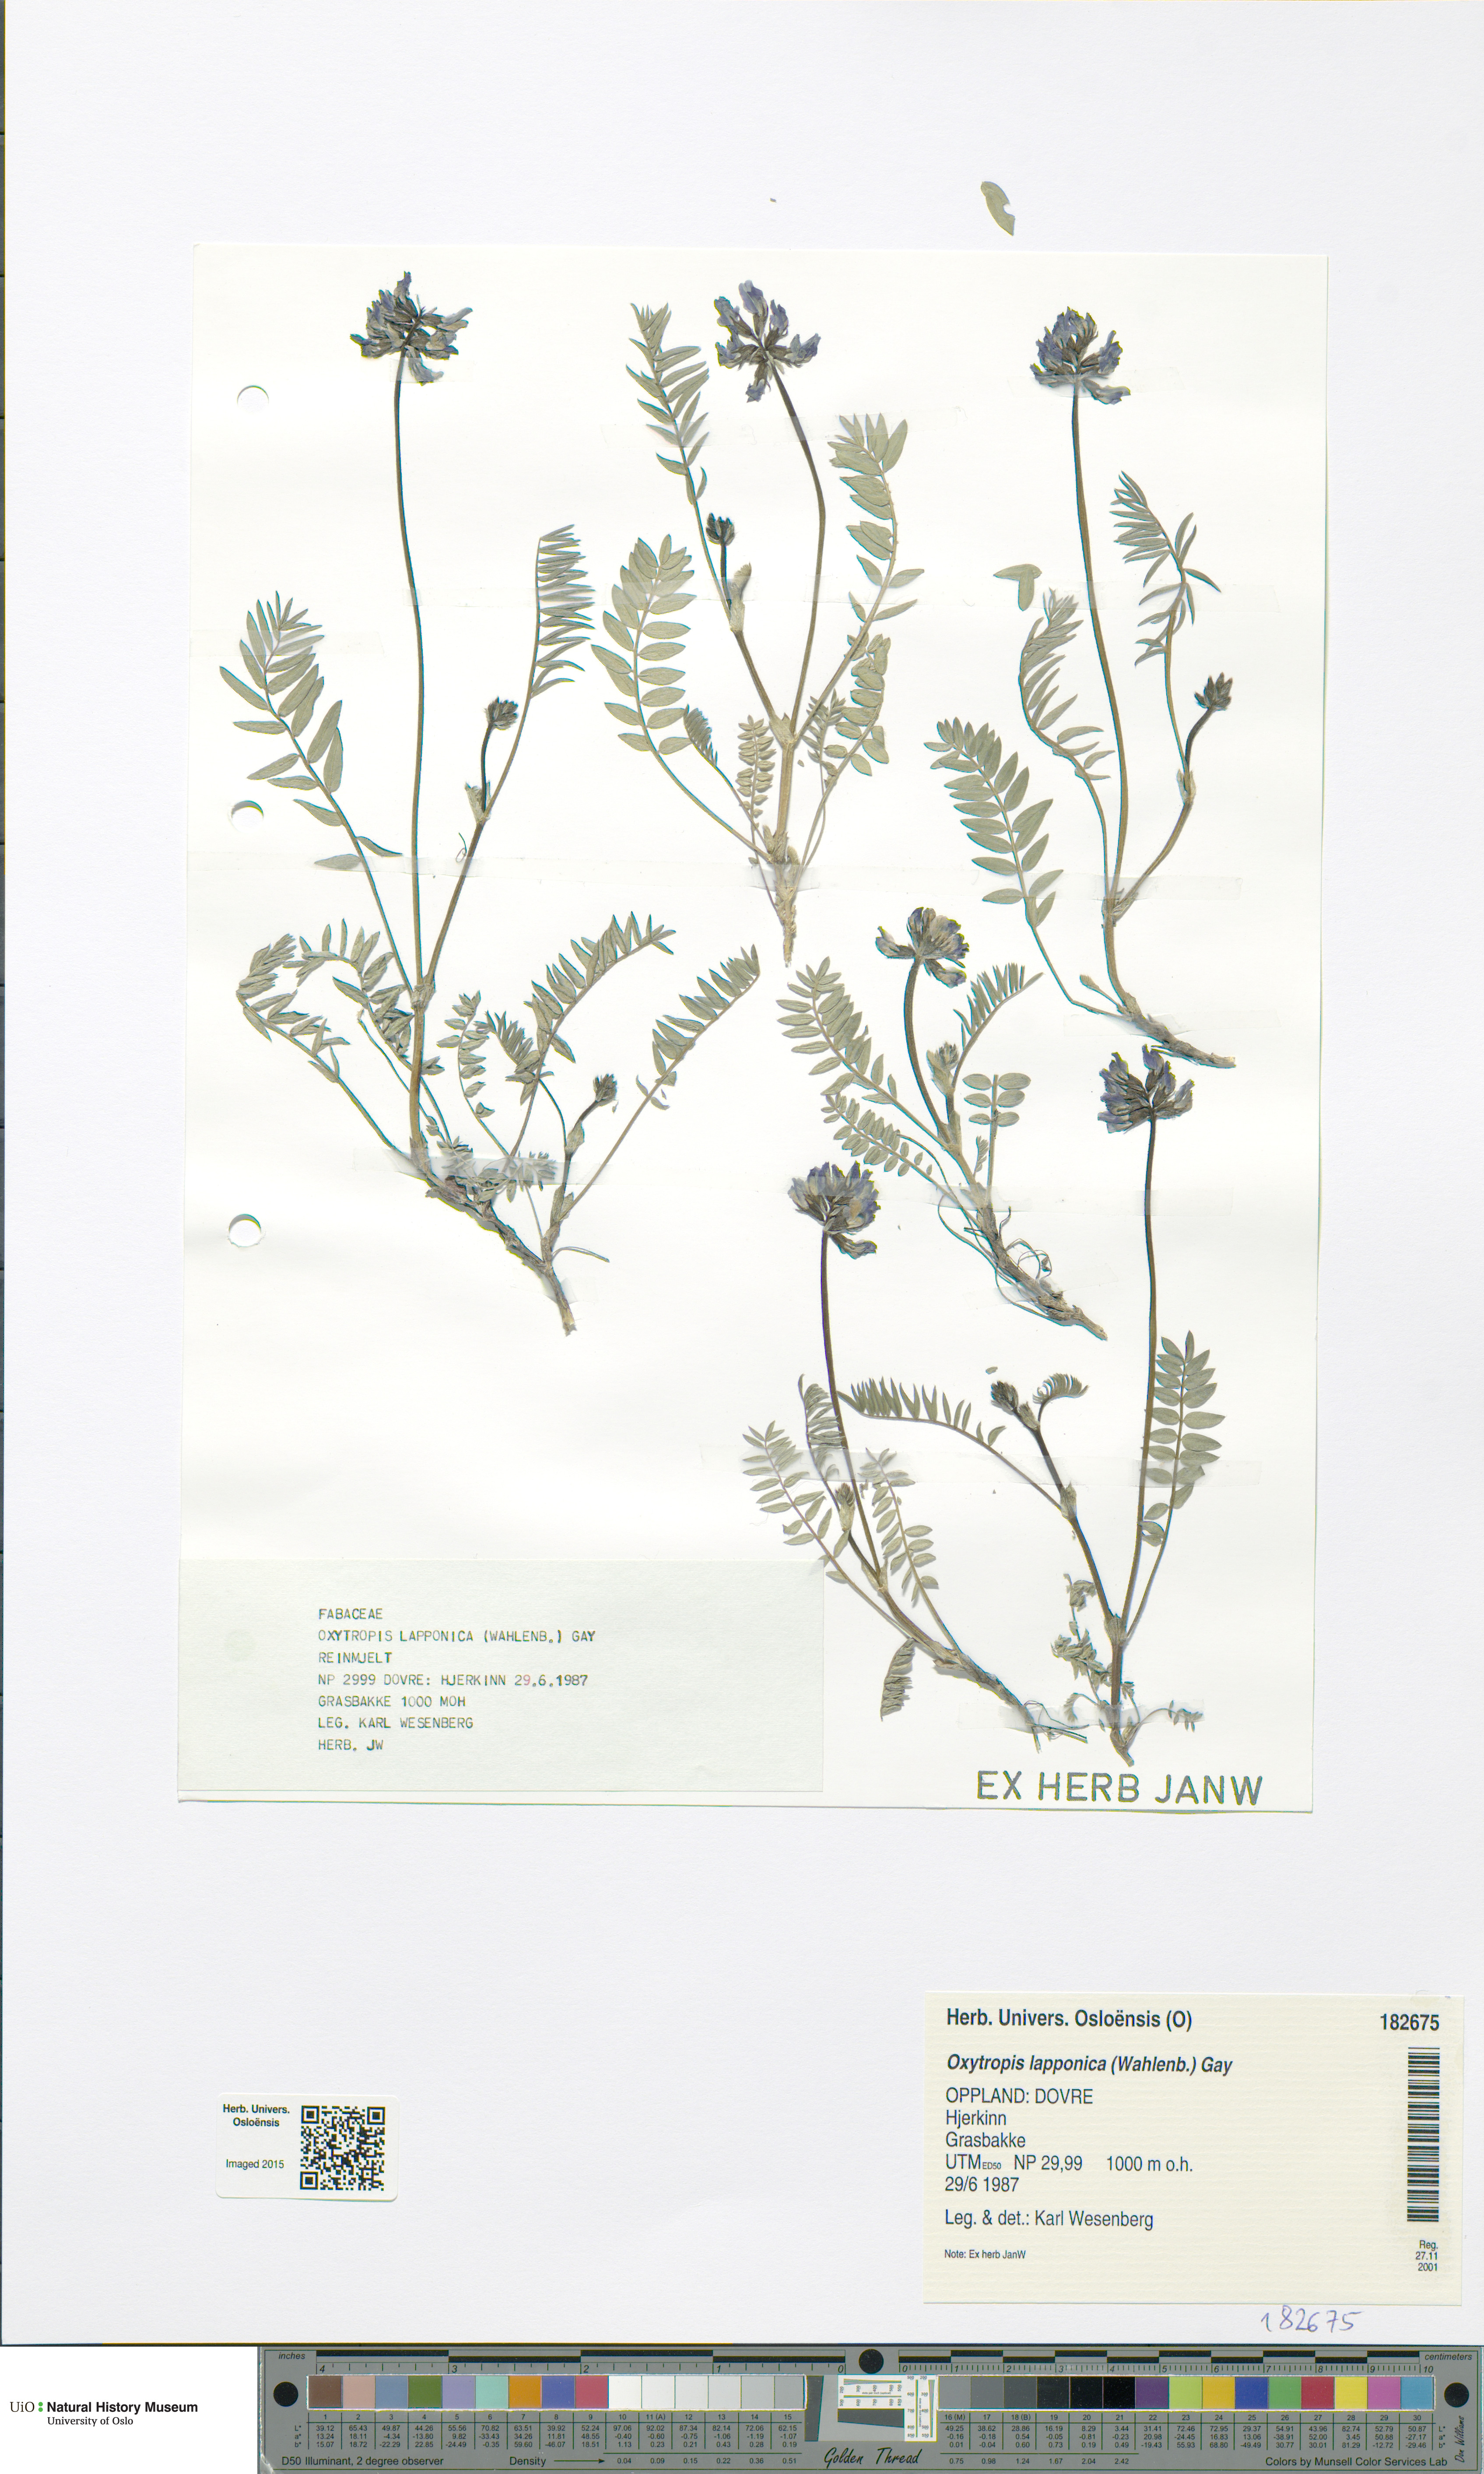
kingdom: Plantae
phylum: Tracheophyta
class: Magnoliopsida
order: Fabales
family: Fabaceae
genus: Oxytropis
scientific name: Oxytropis lapponica
